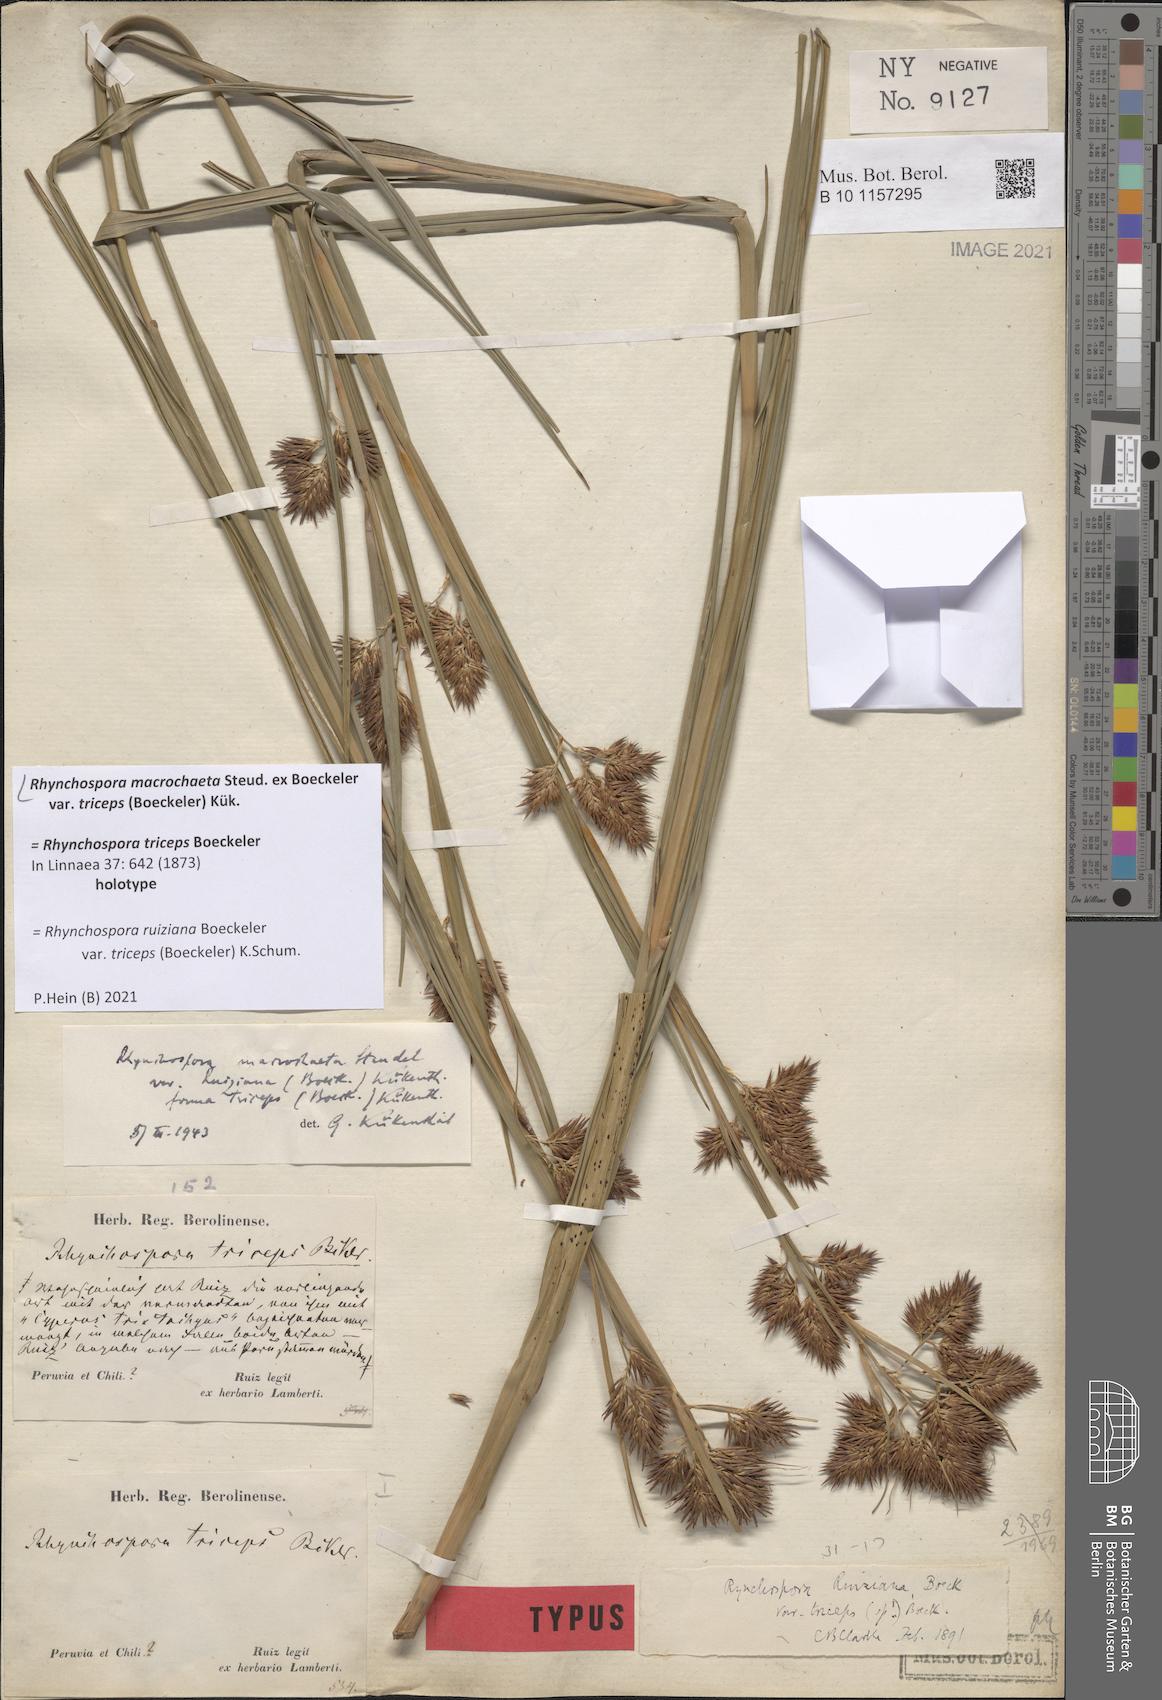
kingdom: Plantae
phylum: Tracheophyta
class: Liliopsida
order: Poales
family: Cyperaceae
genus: Rhynchospora
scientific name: Rhynchospora macrochaeta
